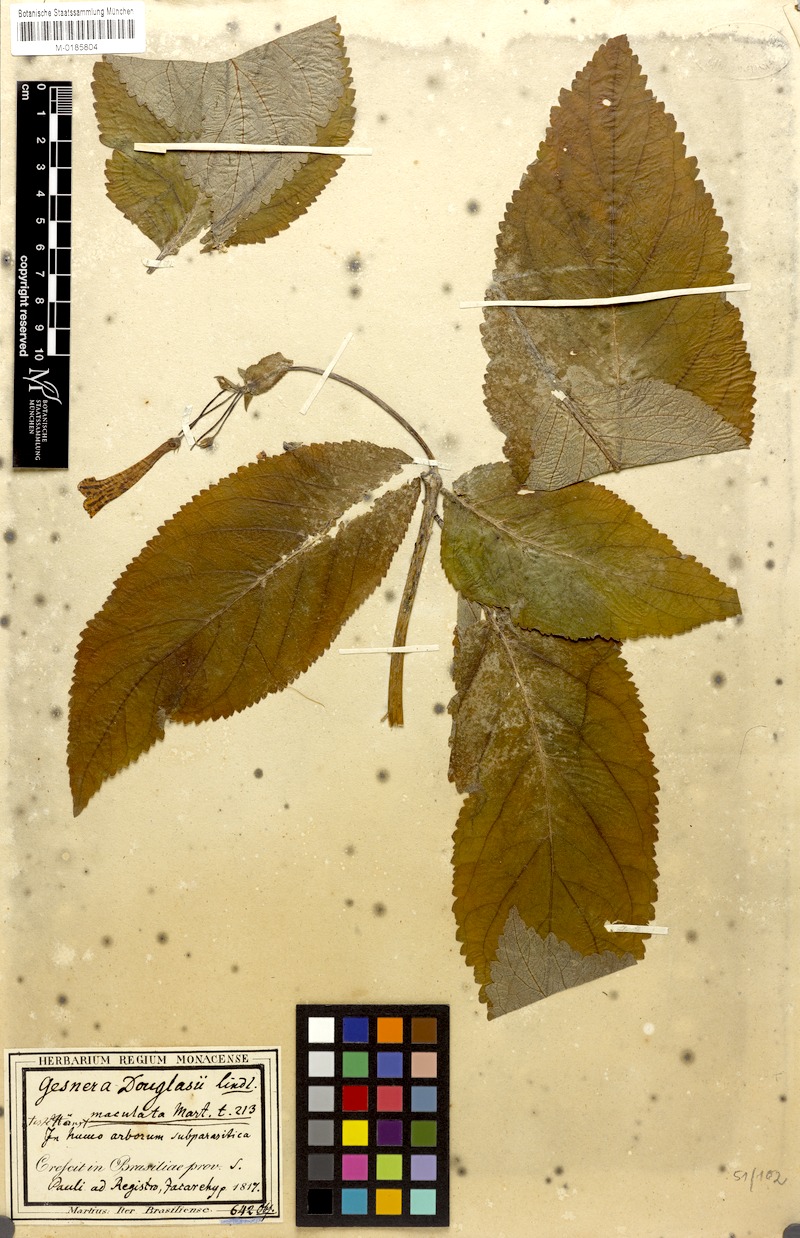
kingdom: Plantae
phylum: Tracheophyta
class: Magnoliopsida
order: Lamiales
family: Gesneriaceae
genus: Sinningia
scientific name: Sinningia douglasii
